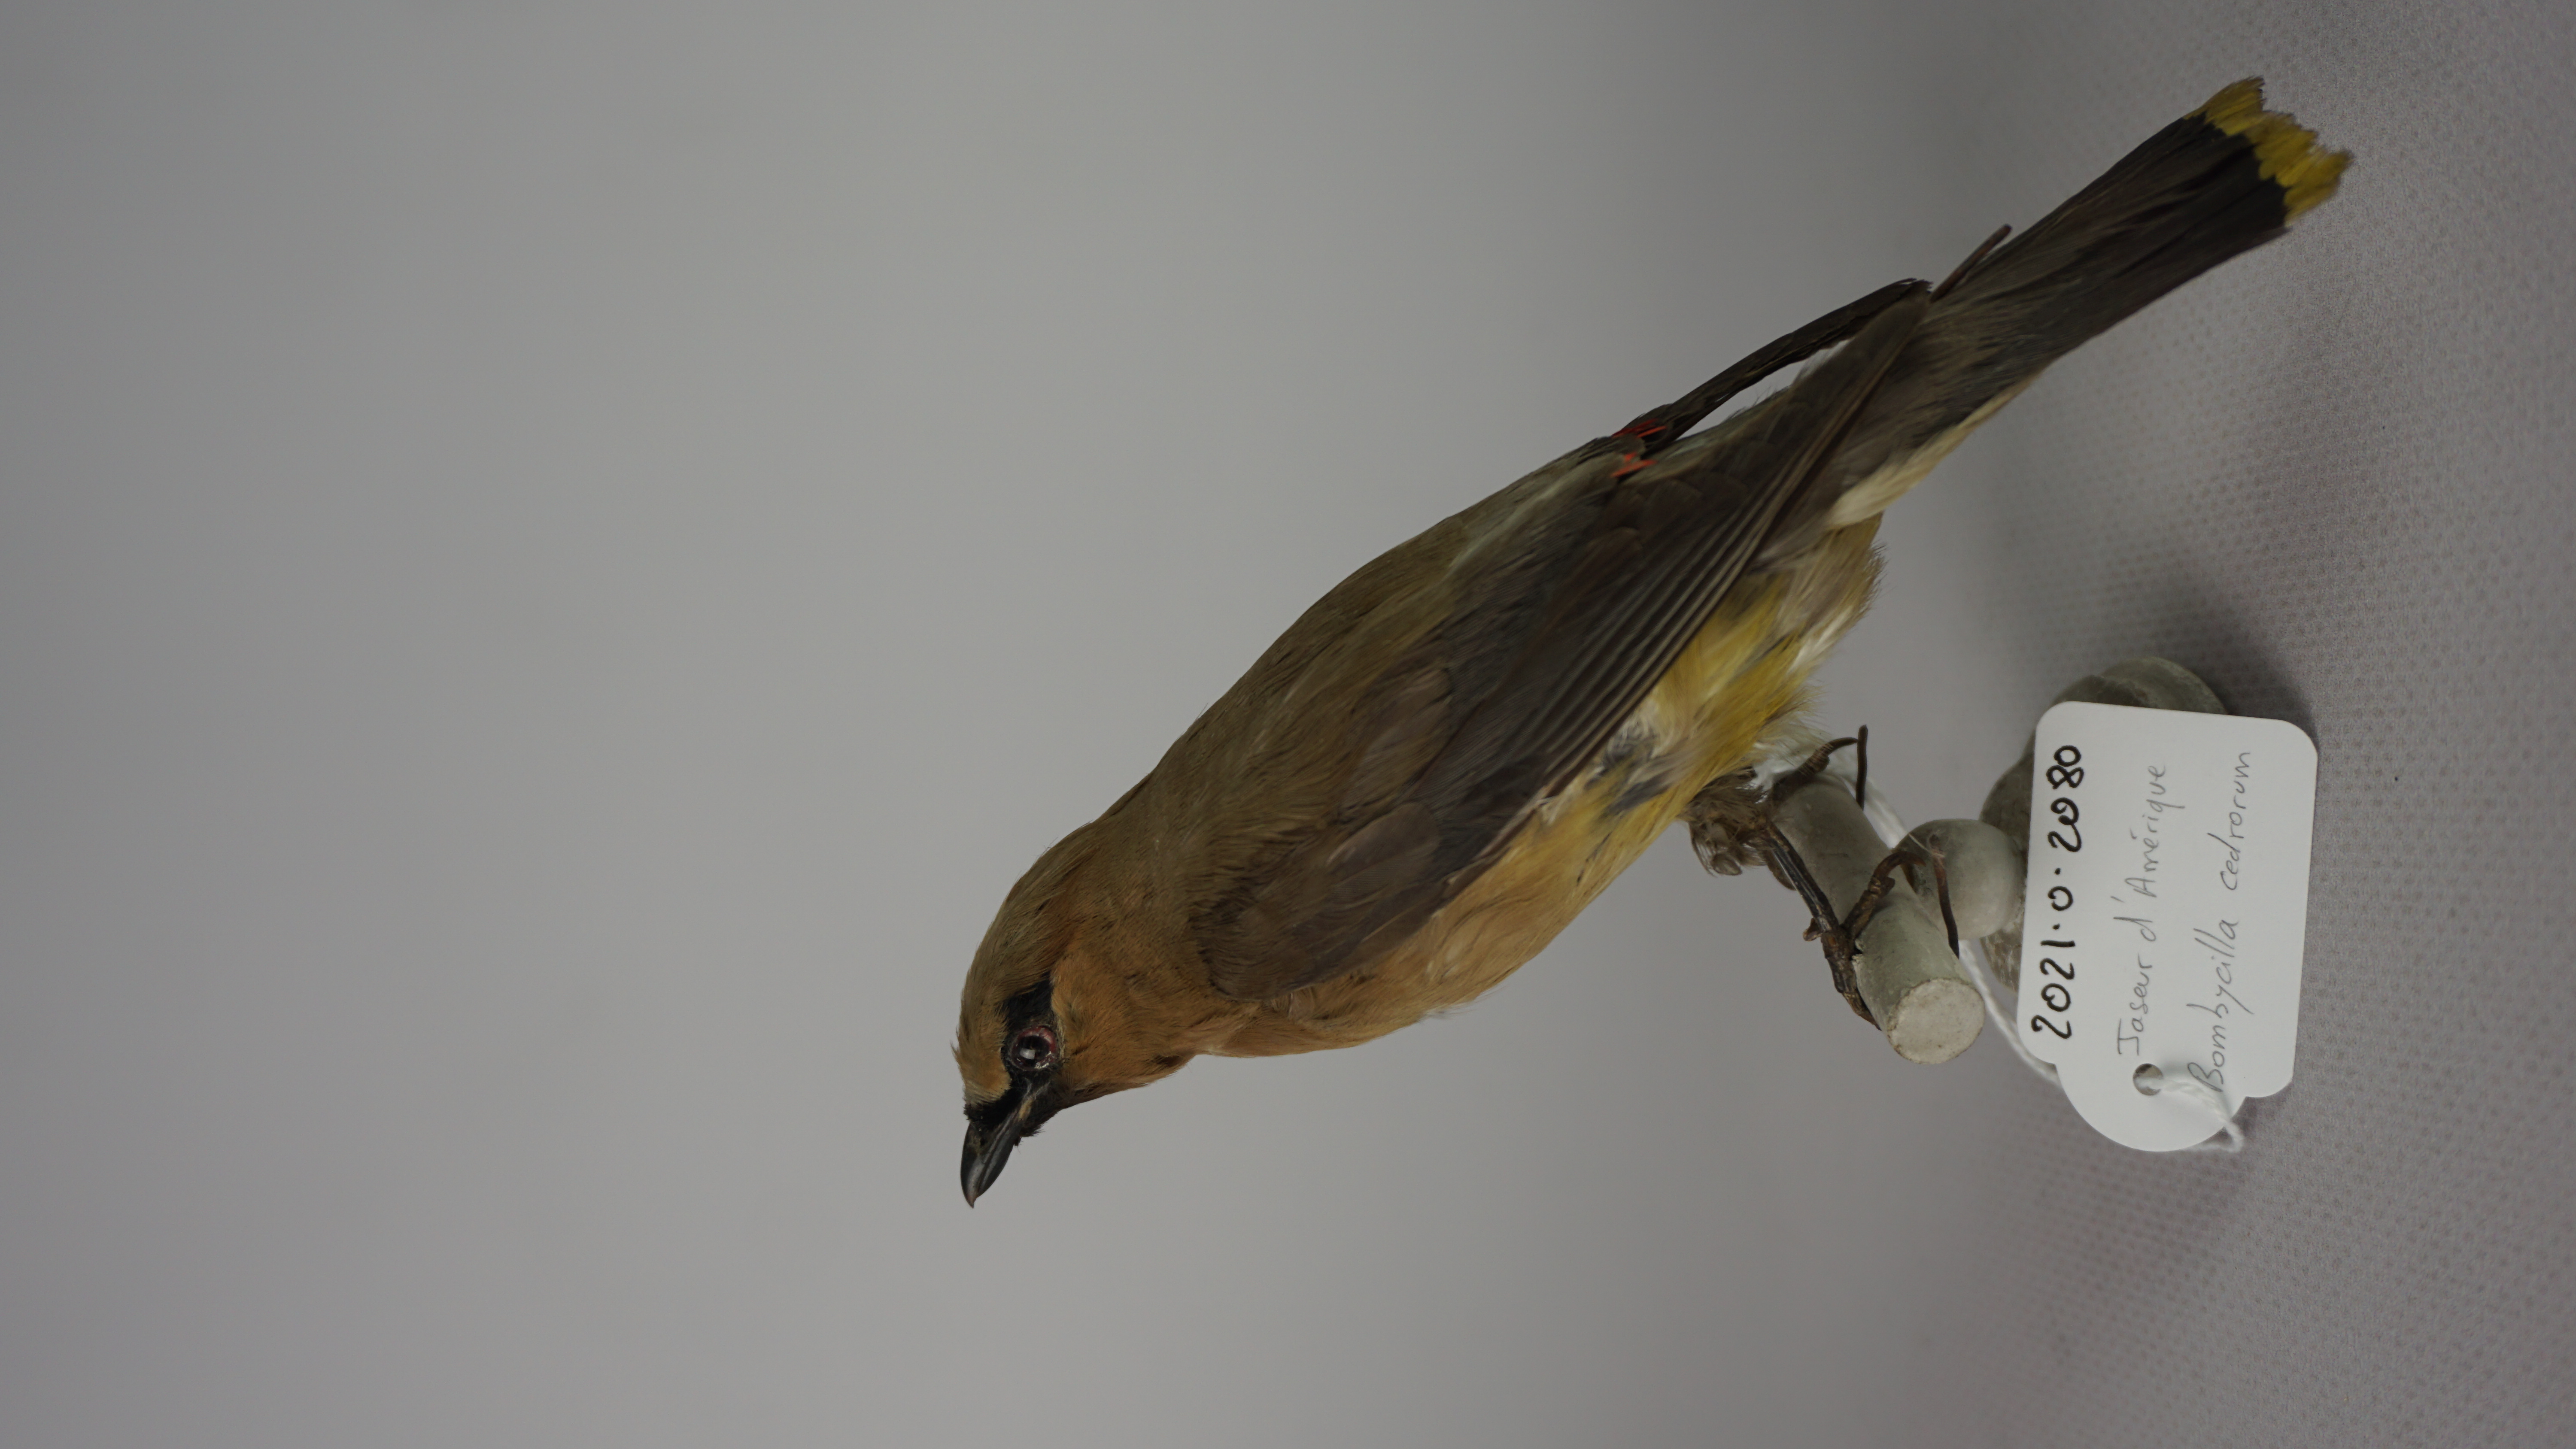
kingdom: Animalia
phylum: Chordata
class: Aves
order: Passeriformes
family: Bombycillidae
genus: Bombycilla
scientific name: Bombycilla cedrorum
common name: Cedar waxwing
